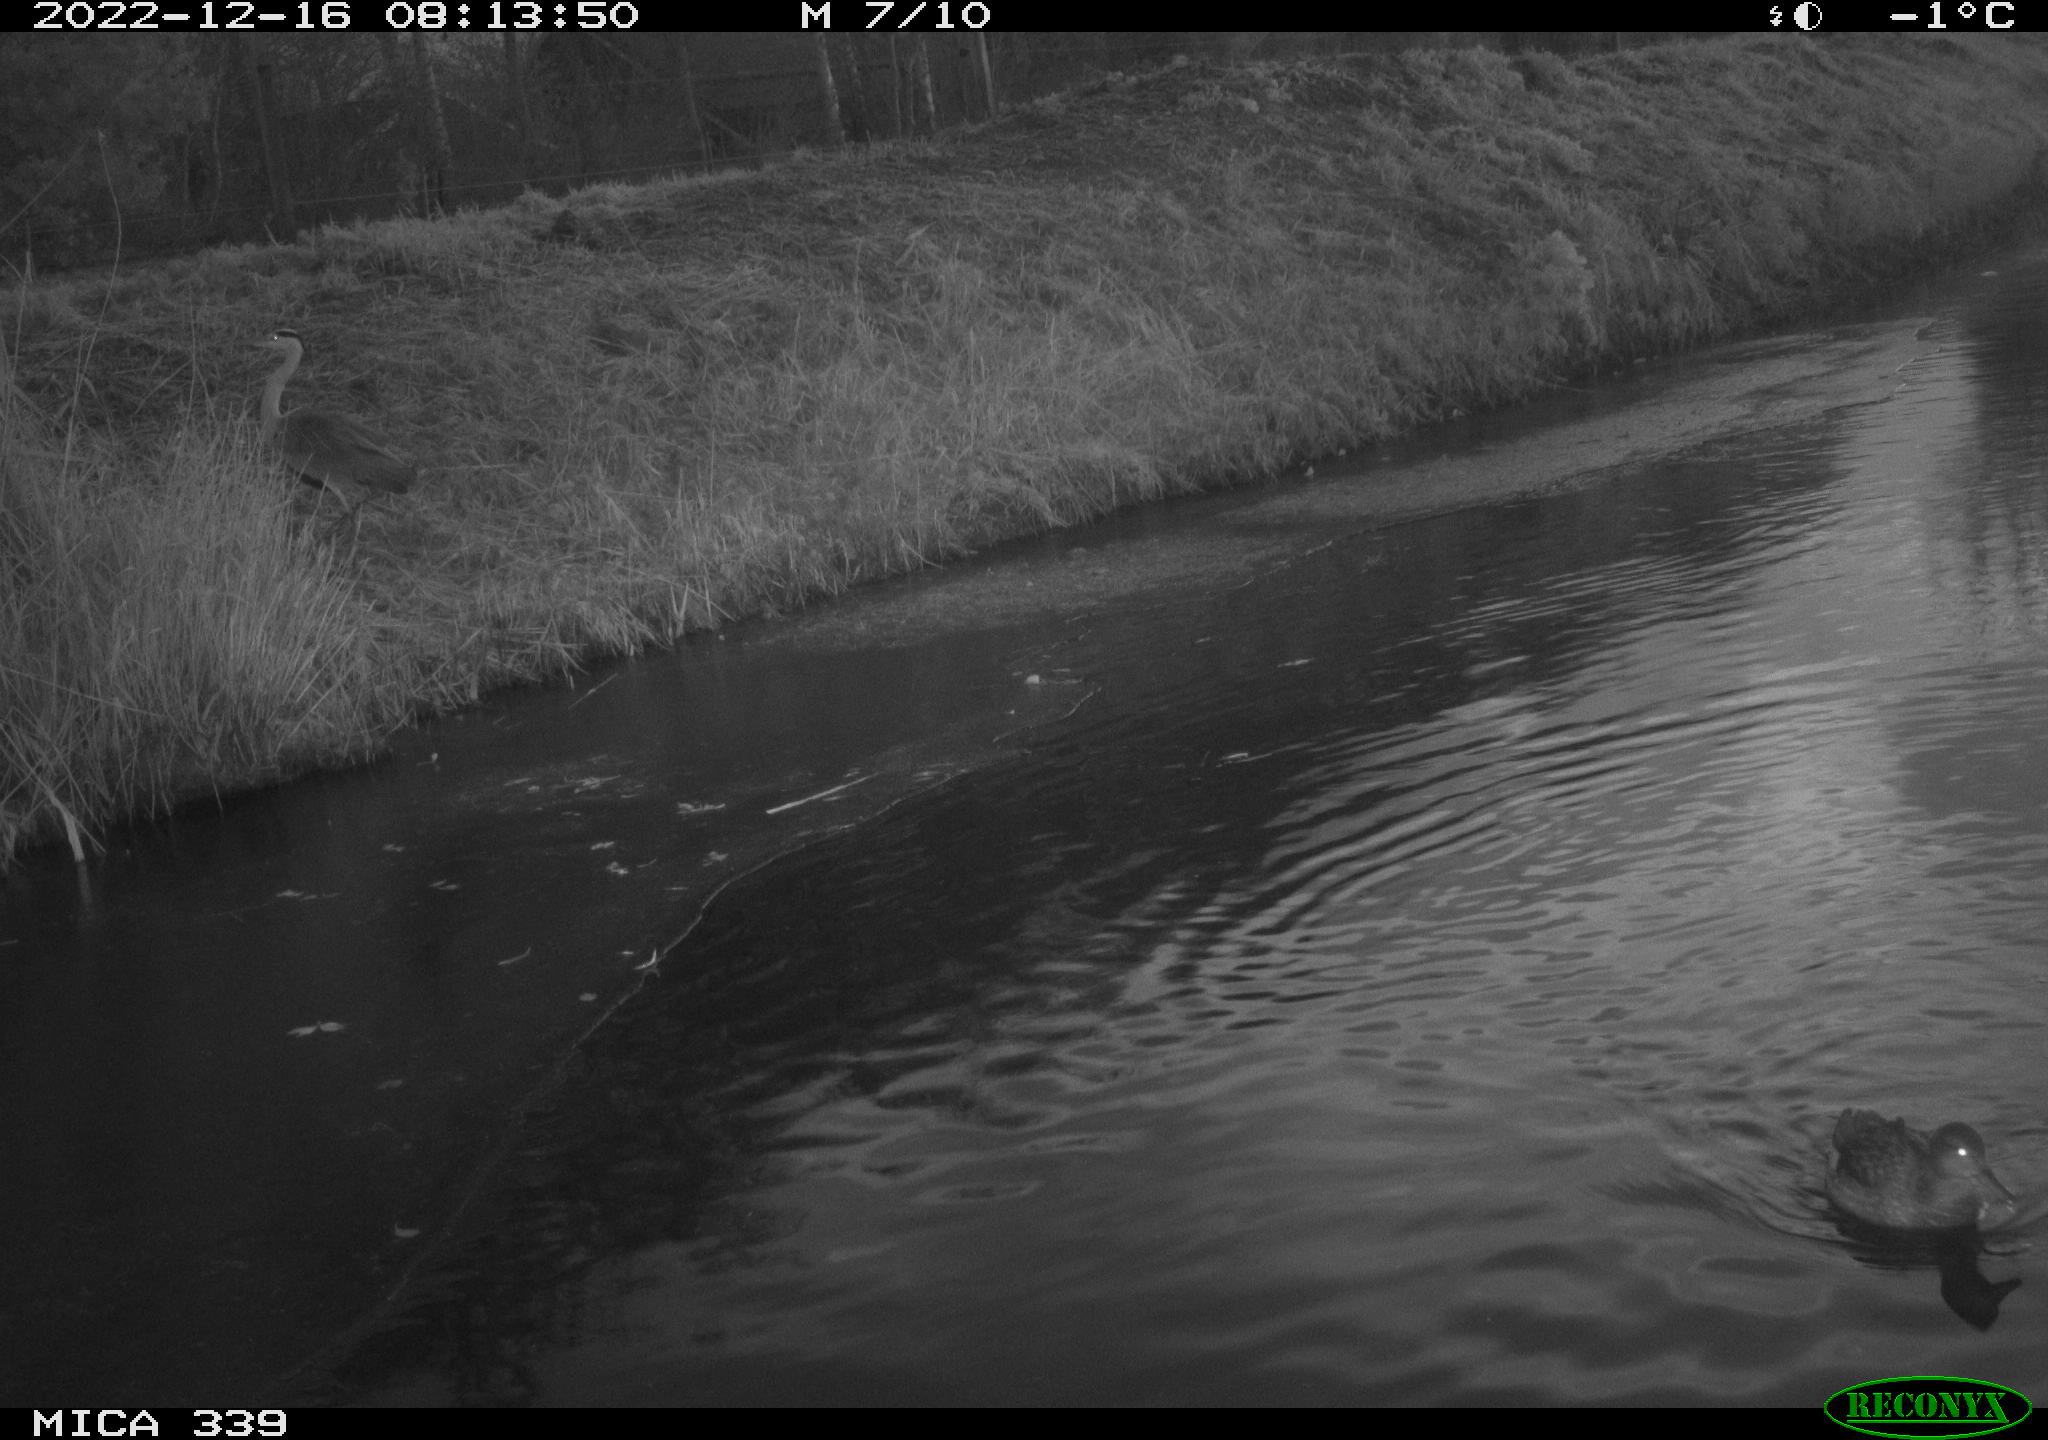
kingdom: Animalia
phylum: Chordata
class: Aves
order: Pelecaniformes
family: Ardeidae
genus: Ardea
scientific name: Ardea cinerea
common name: Grey heron
